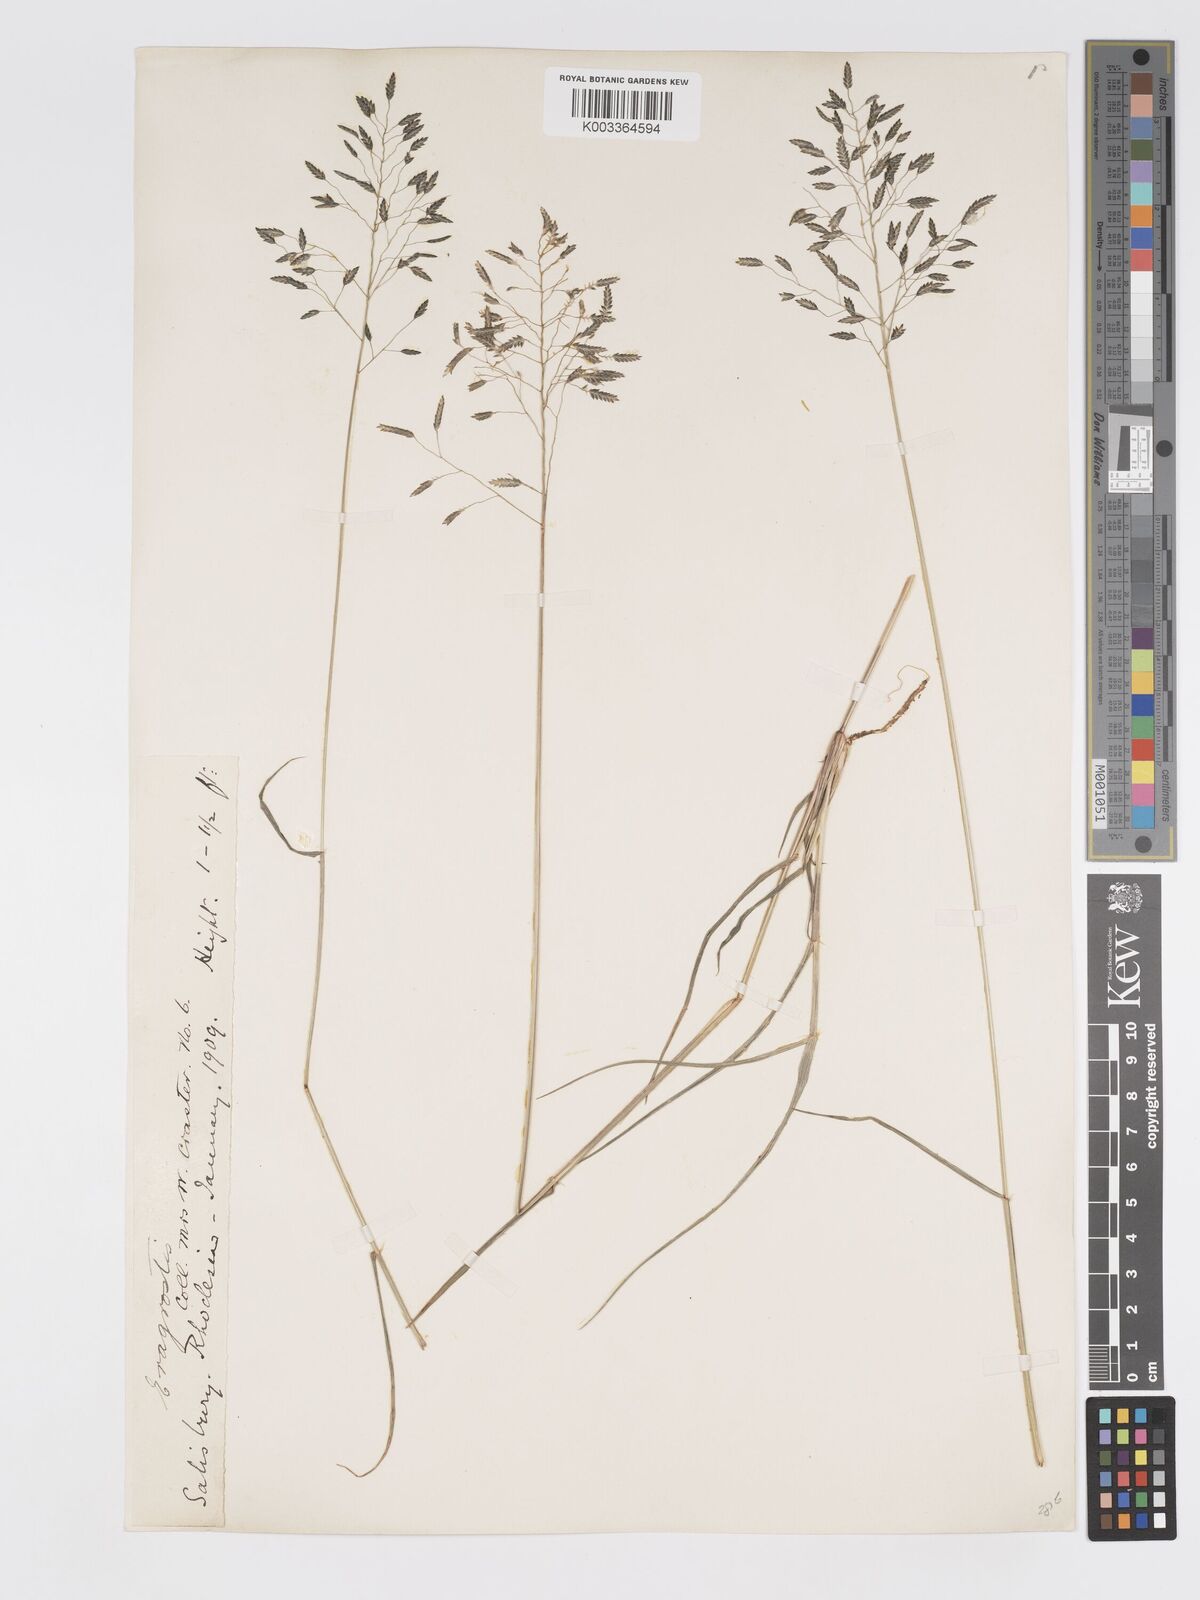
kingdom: Plantae
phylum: Tracheophyta
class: Liliopsida
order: Poales
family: Poaceae
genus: Eragrostis
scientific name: Eragrostis patentipilosa
